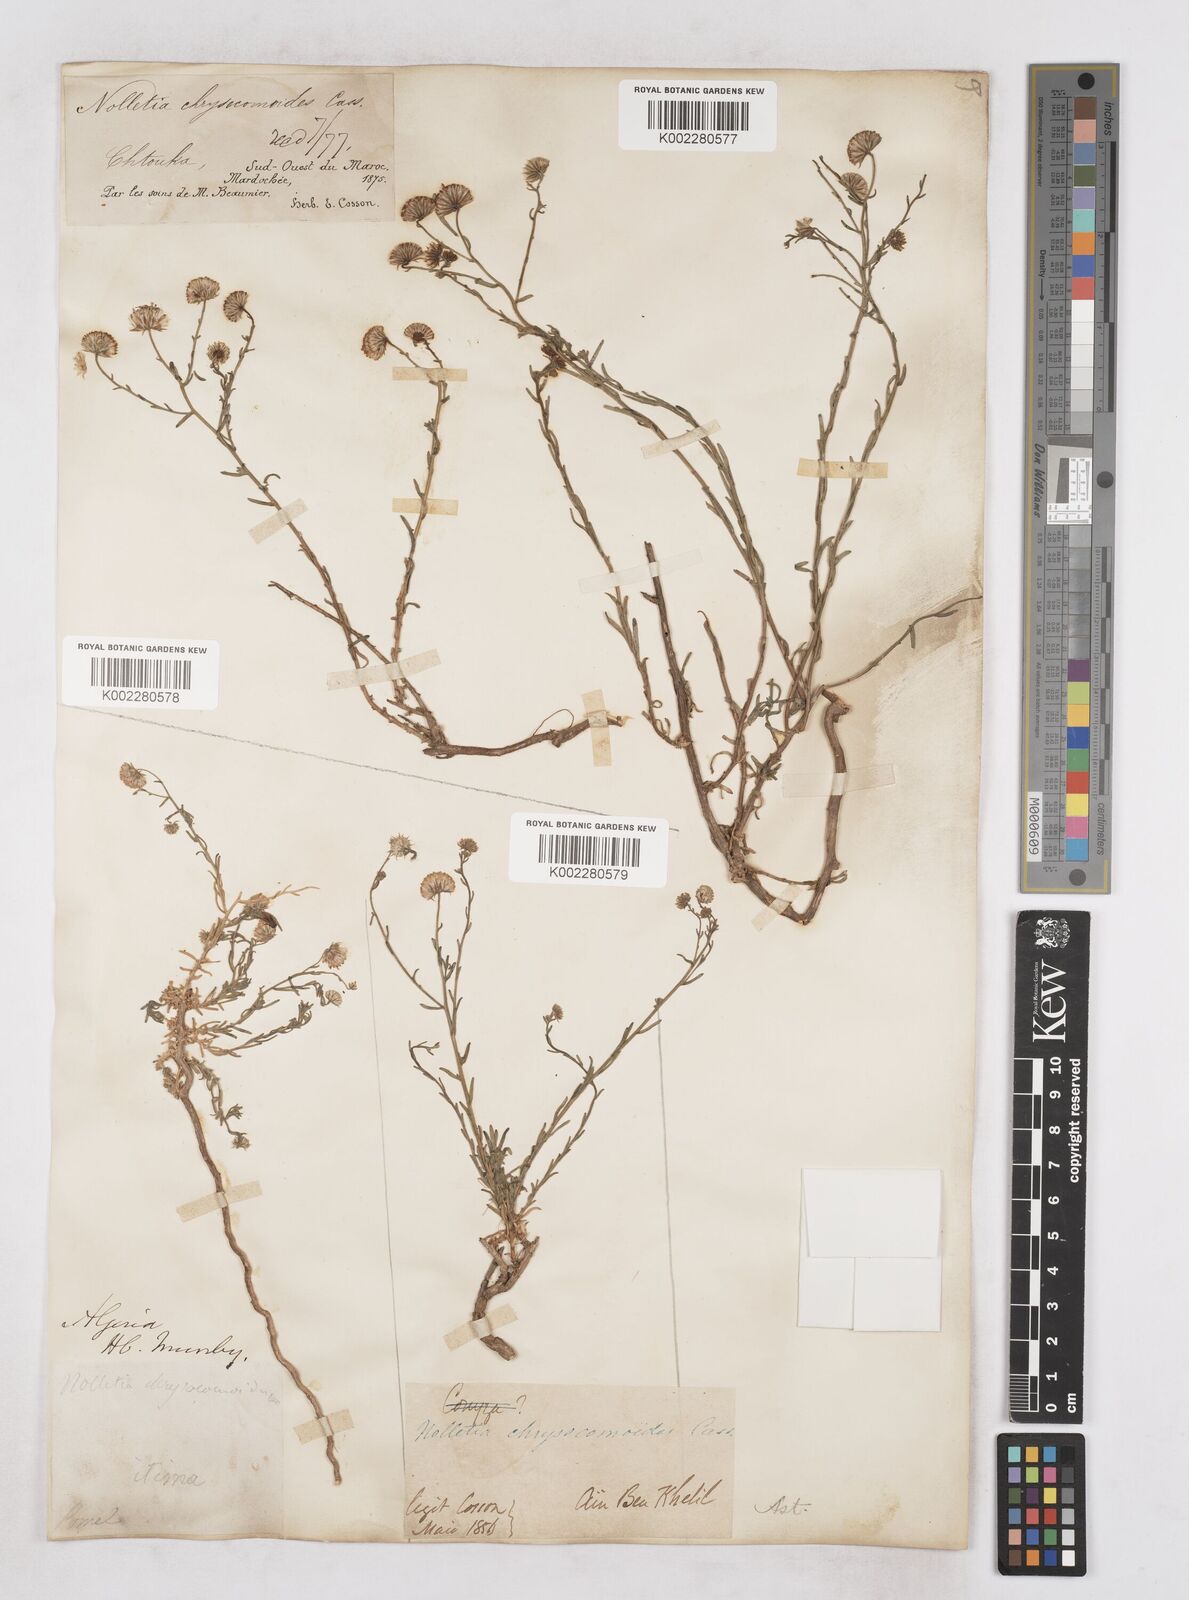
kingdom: Plantae
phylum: Tracheophyta
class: Magnoliopsida
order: Asterales
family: Asteraceae
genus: Nolletia
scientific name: Nolletia chrysocomoides
